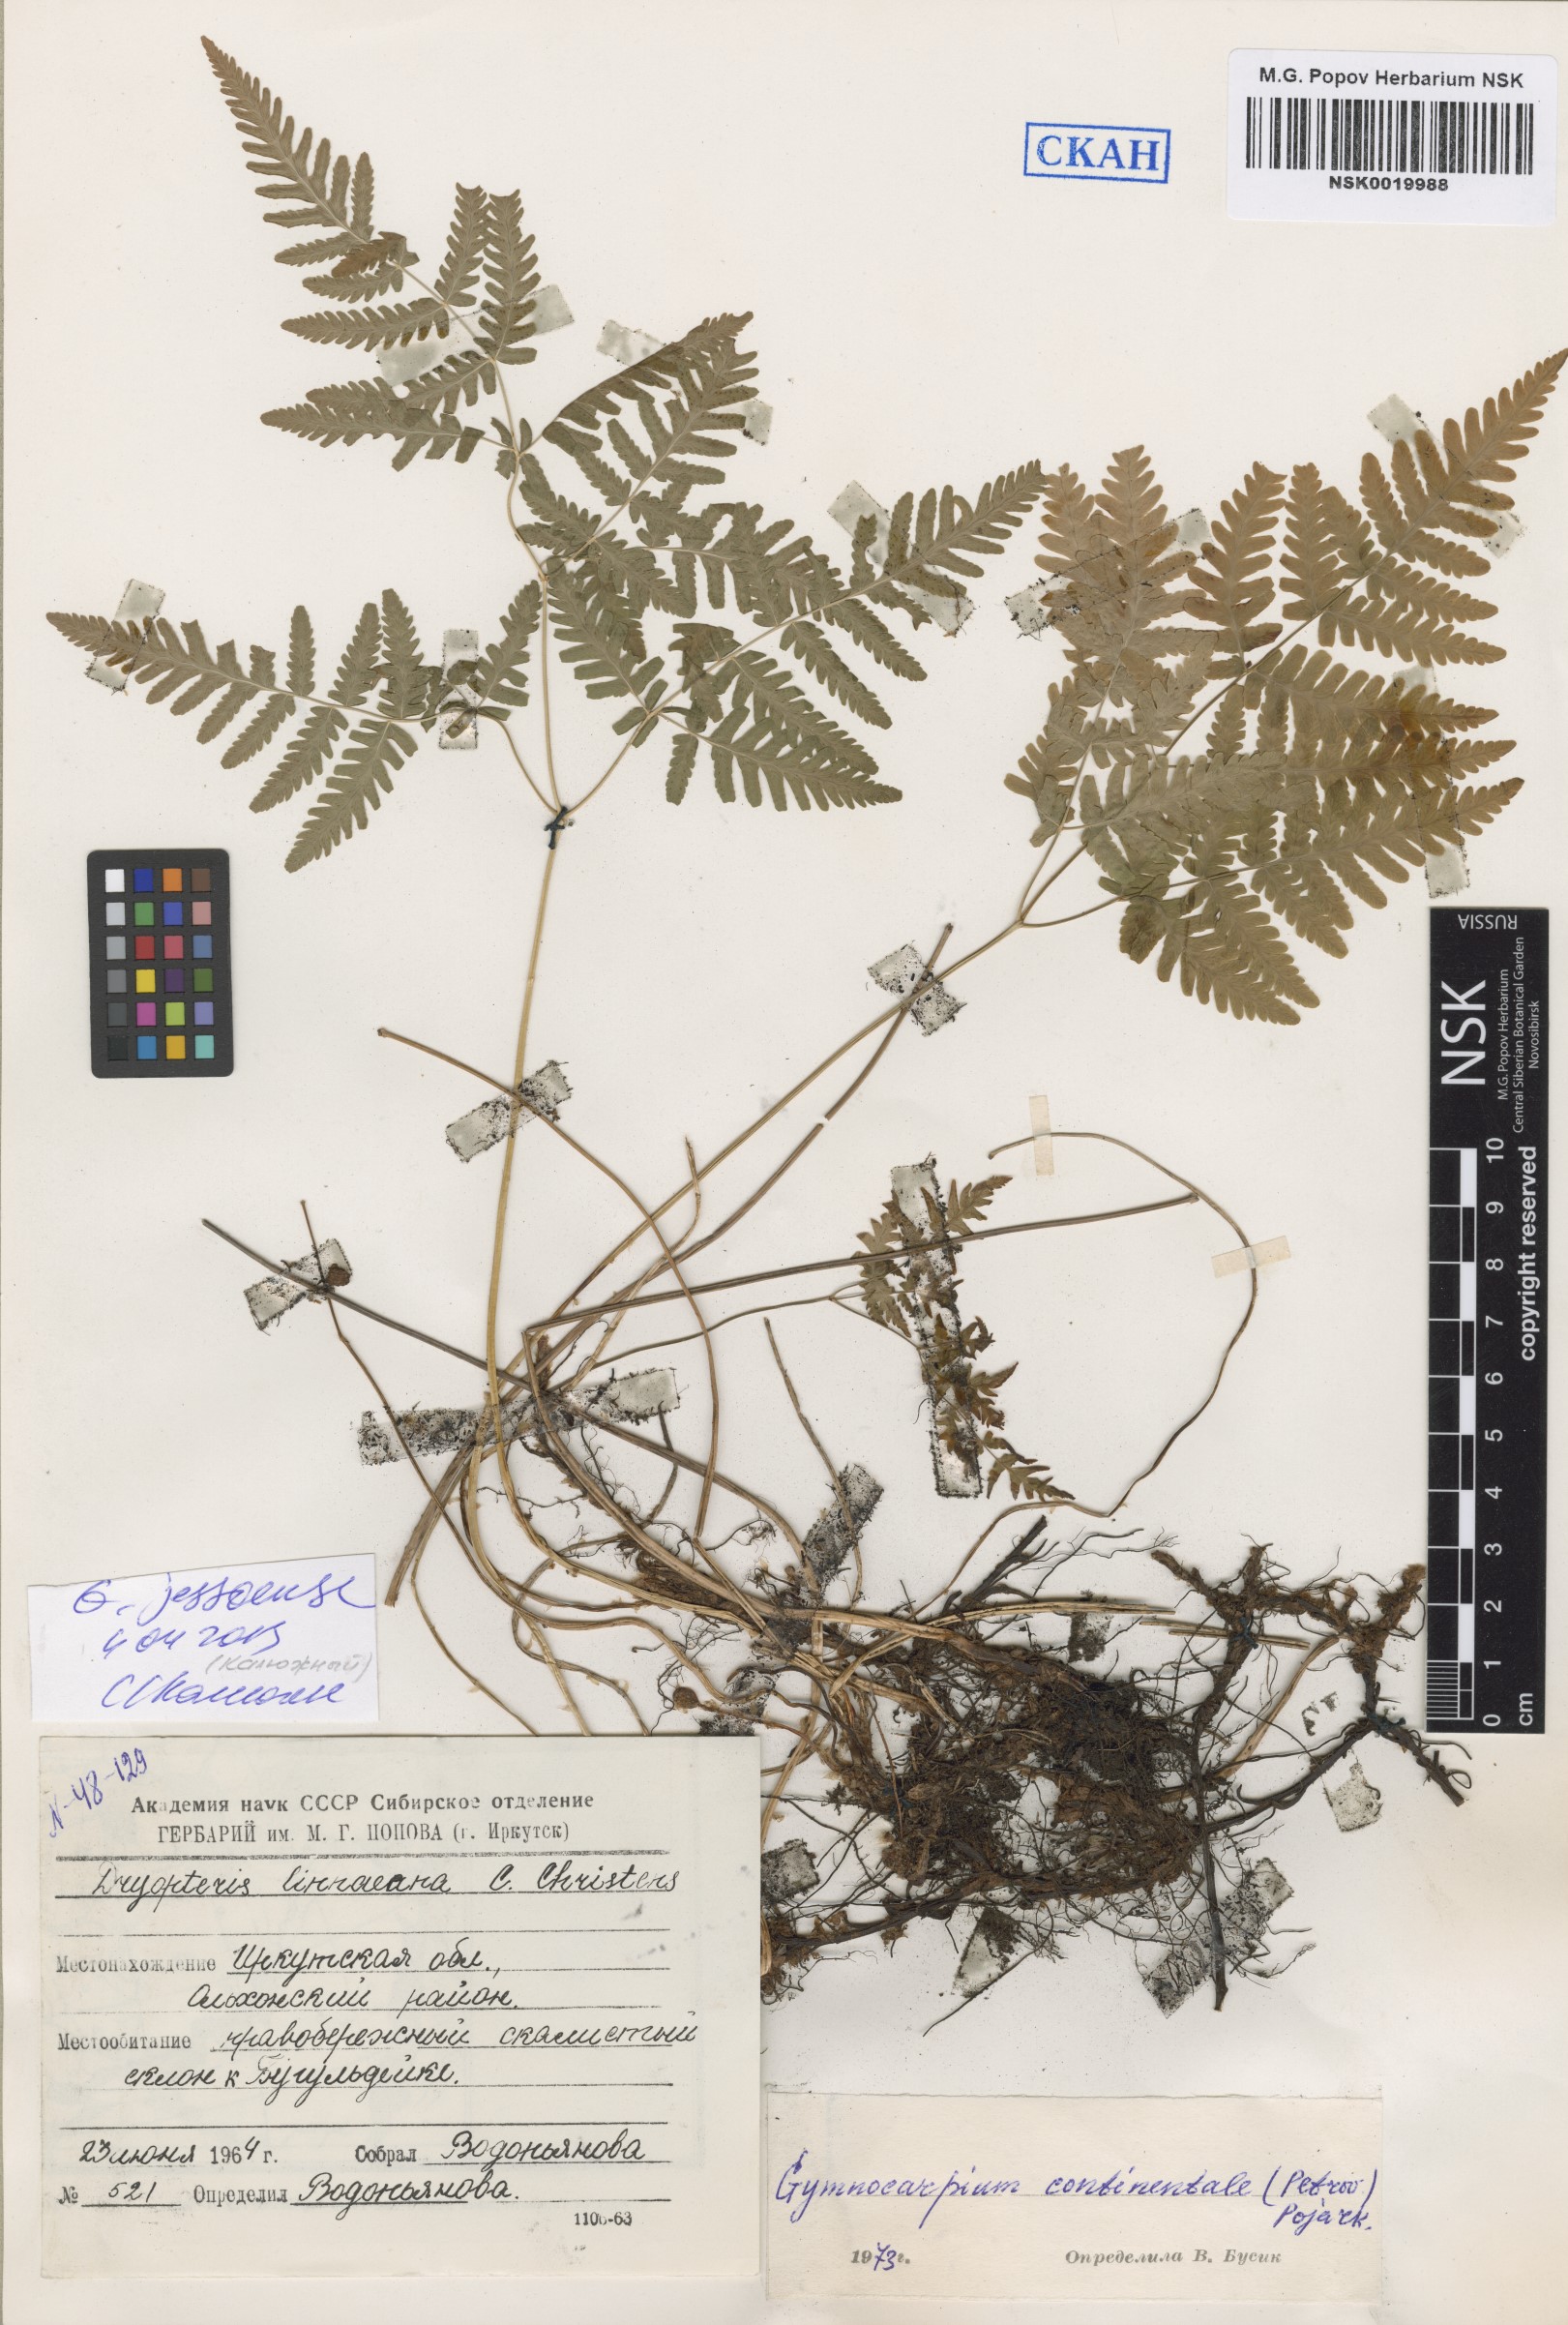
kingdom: Plantae
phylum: Tracheophyta
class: Polypodiopsida
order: Polypodiales
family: Cystopteridaceae
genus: Gymnocarpium
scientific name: Gymnocarpium jessoense
